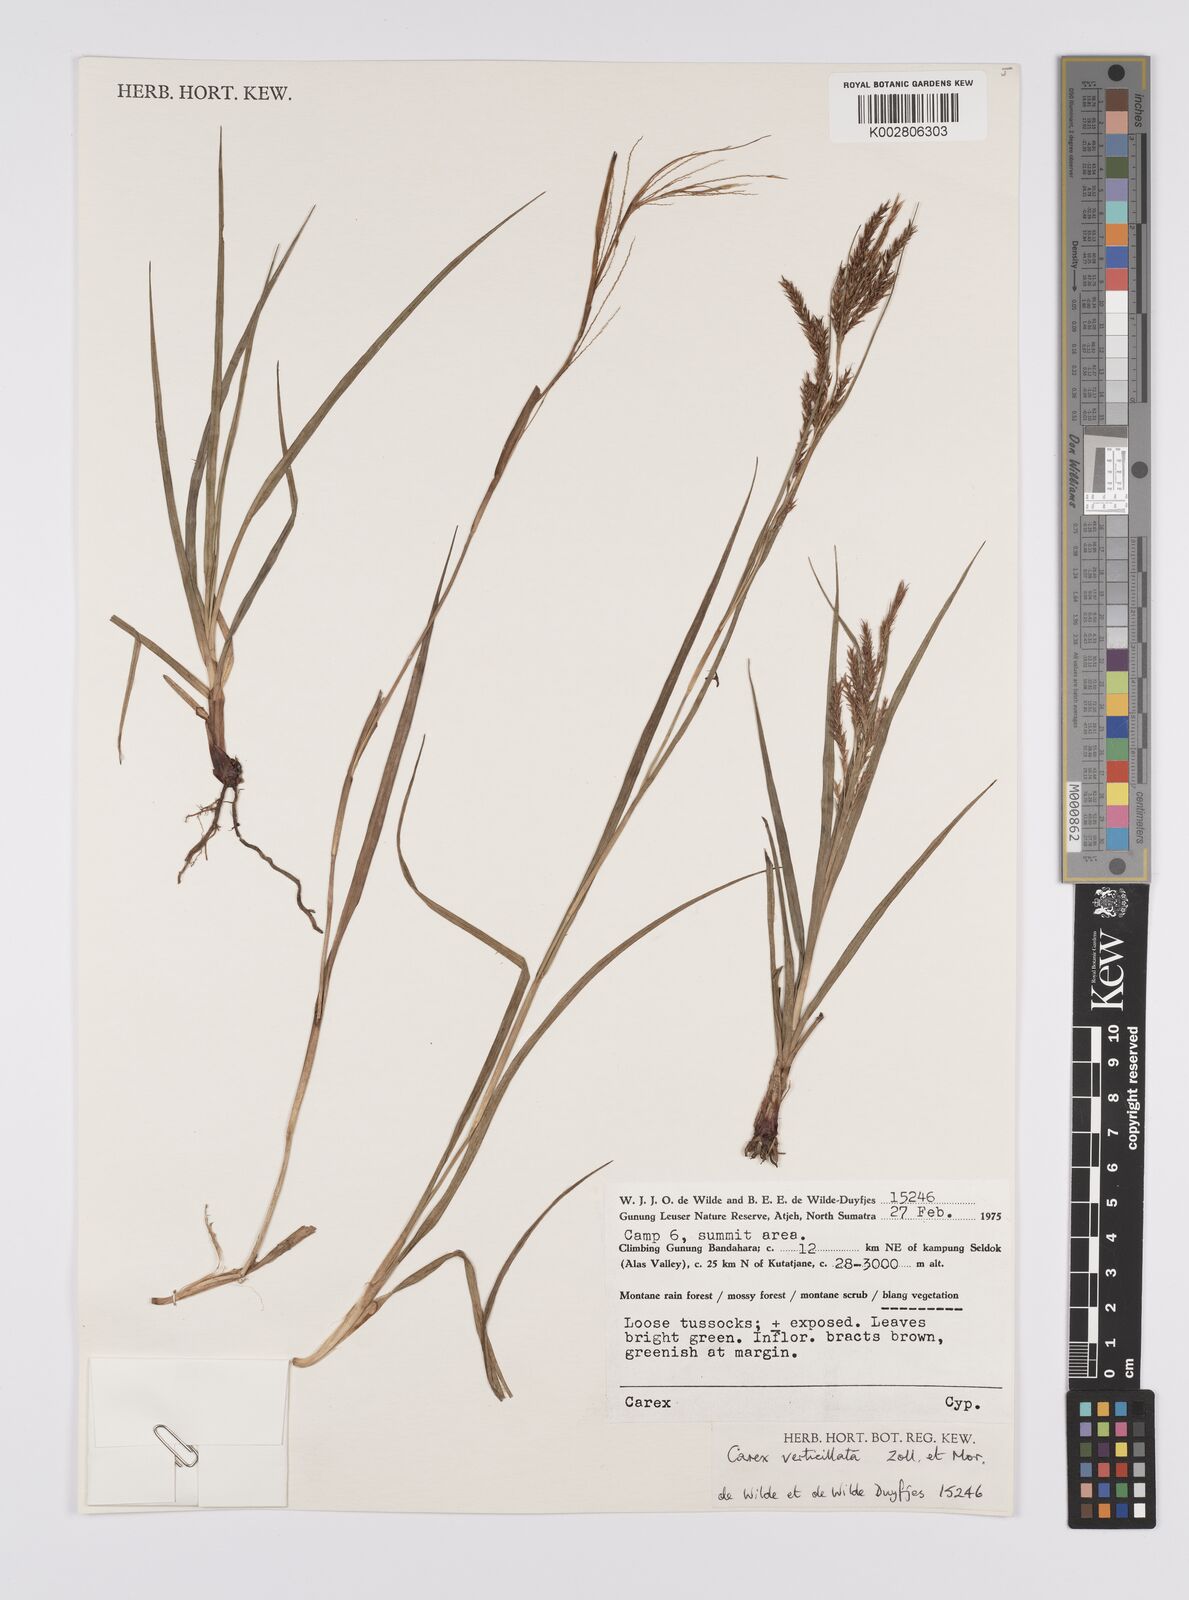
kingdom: Plantae
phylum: Tracheophyta
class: Liliopsida
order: Poales
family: Cyperaceae
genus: Carex
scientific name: Carex verticillata
